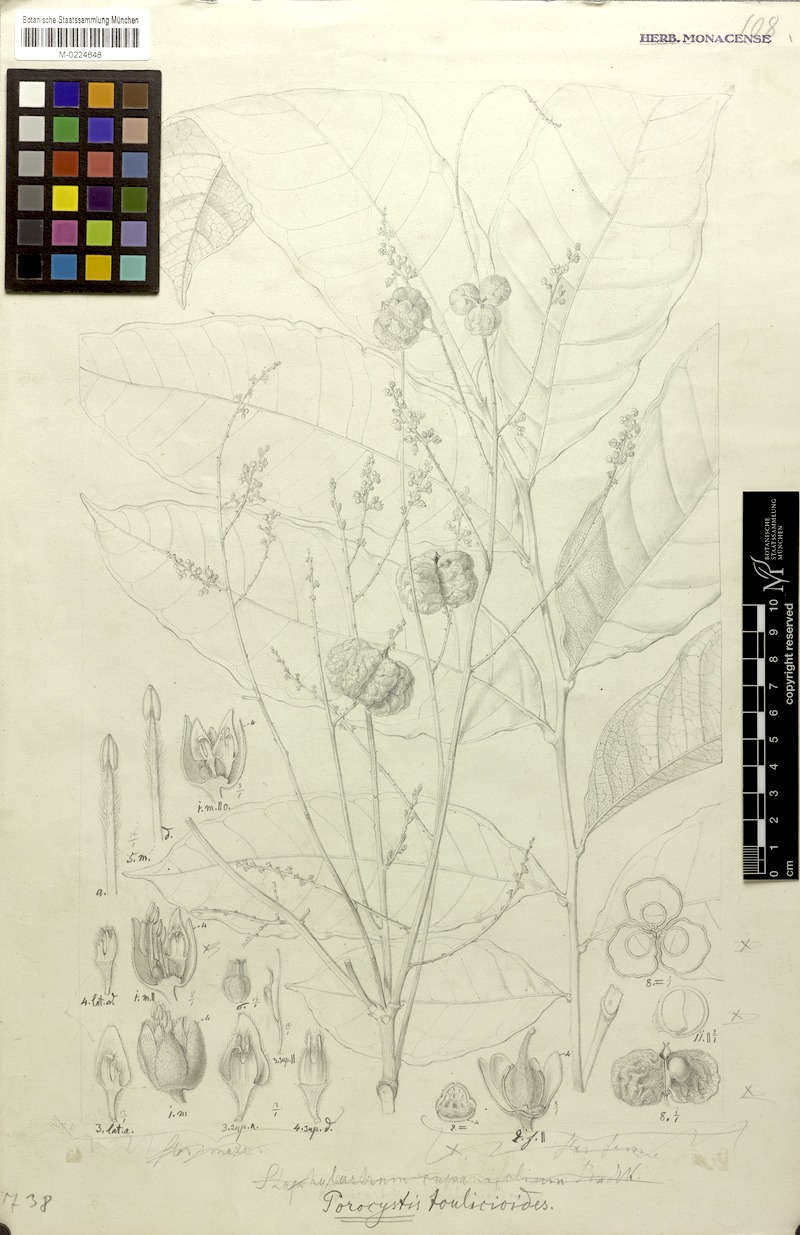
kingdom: Plantae
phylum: Tracheophyta
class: Magnoliopsida
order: Sapindales
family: Sapindaceae
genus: Porocystis
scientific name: Porocystis toulicioides
